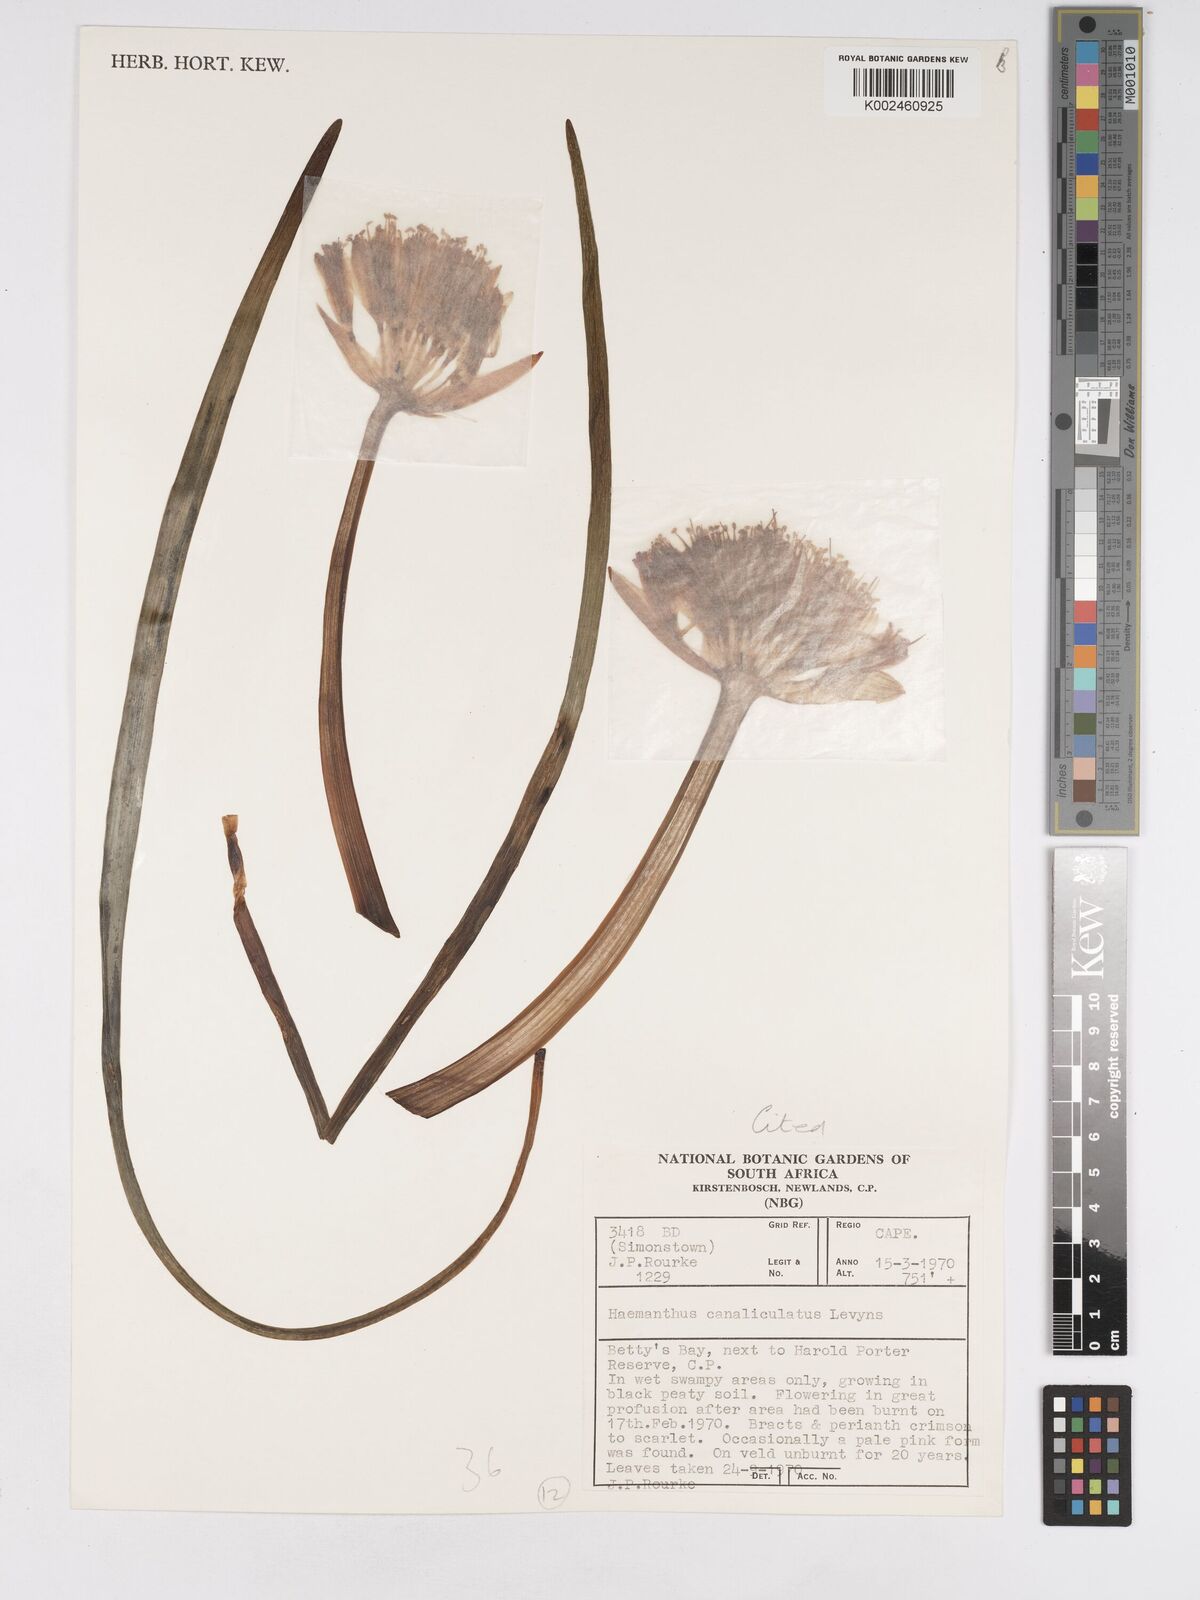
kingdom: Plantae
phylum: Tracheophyta
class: Liliopsida
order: Asparagales
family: Amaryllidaceae
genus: Haemanthus
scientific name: Haemanthus canaliculatus
